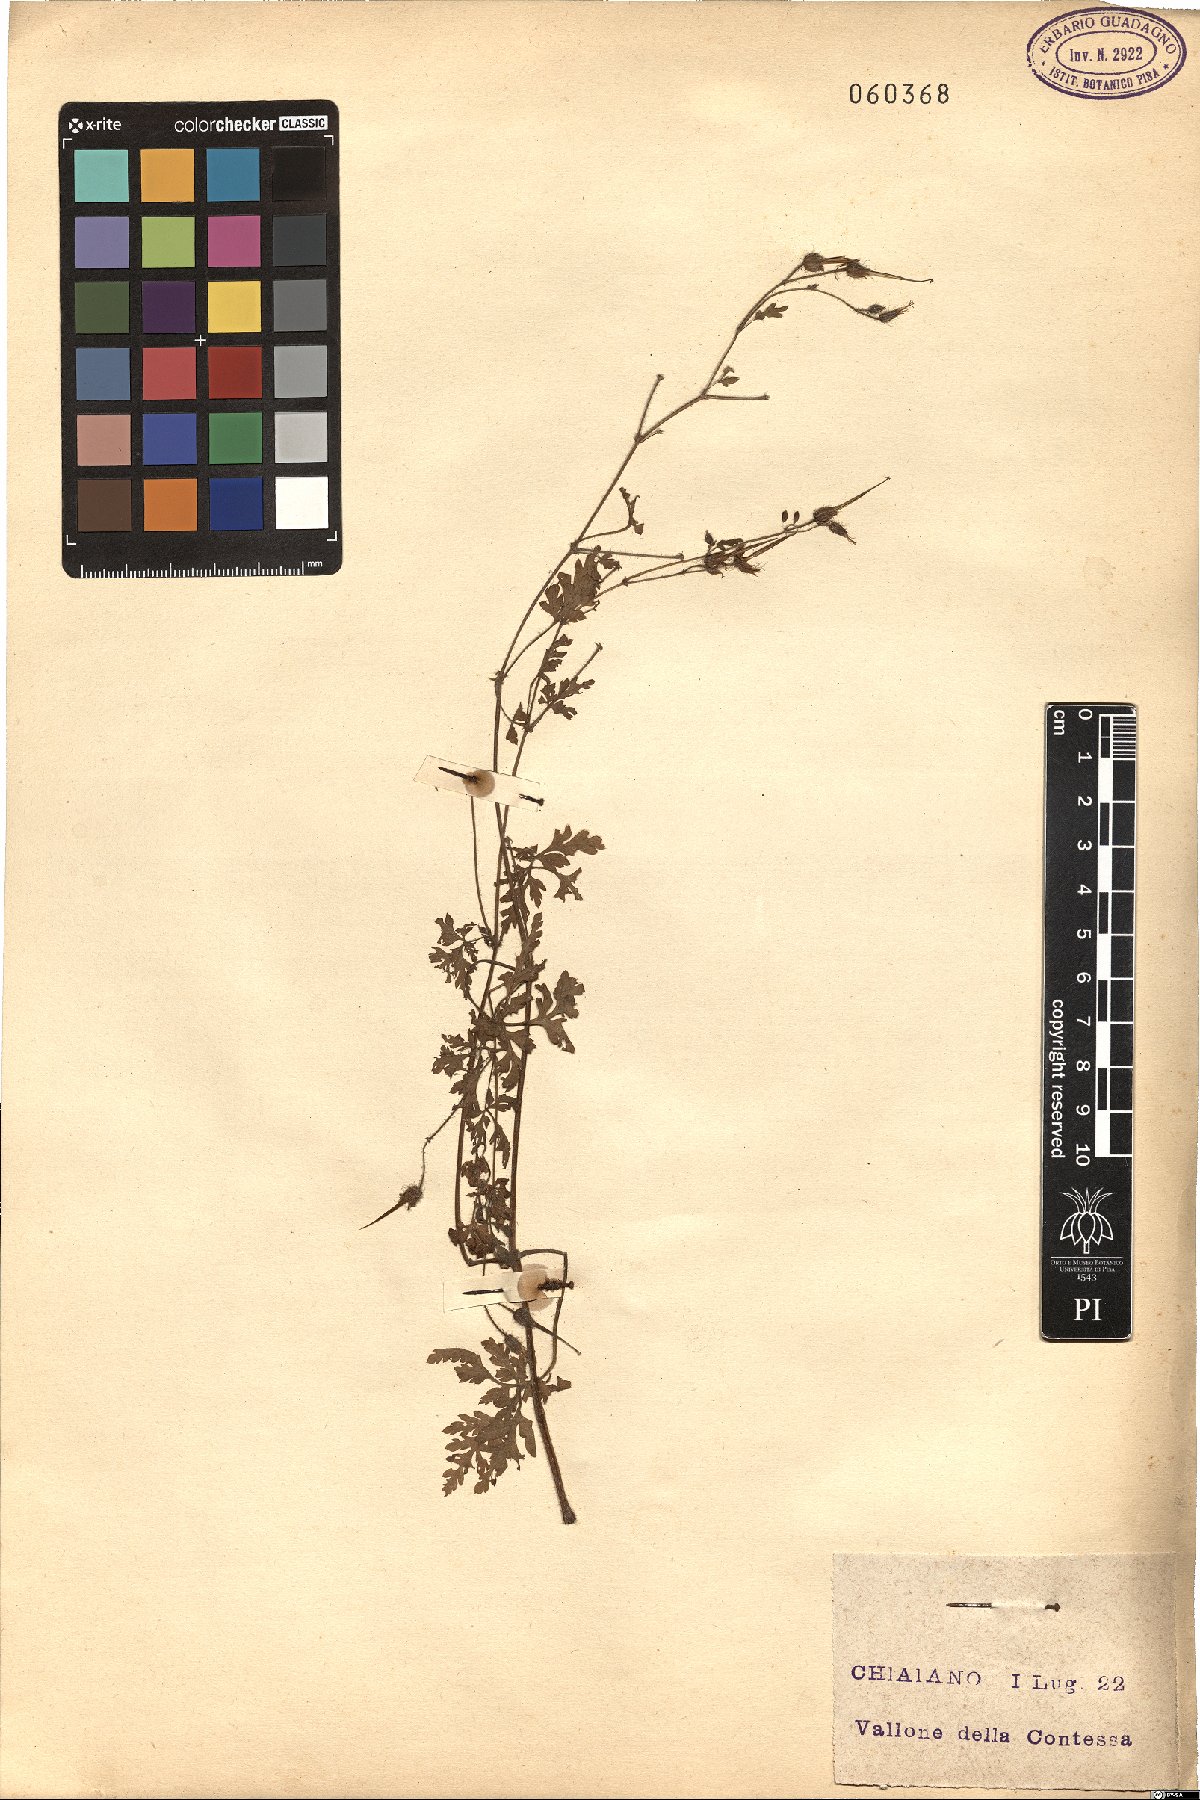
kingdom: Plantae
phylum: Tracheophyta
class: Magnoliopsida
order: Geraniales
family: Geraniaceae
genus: Erodium
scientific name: Erodium
